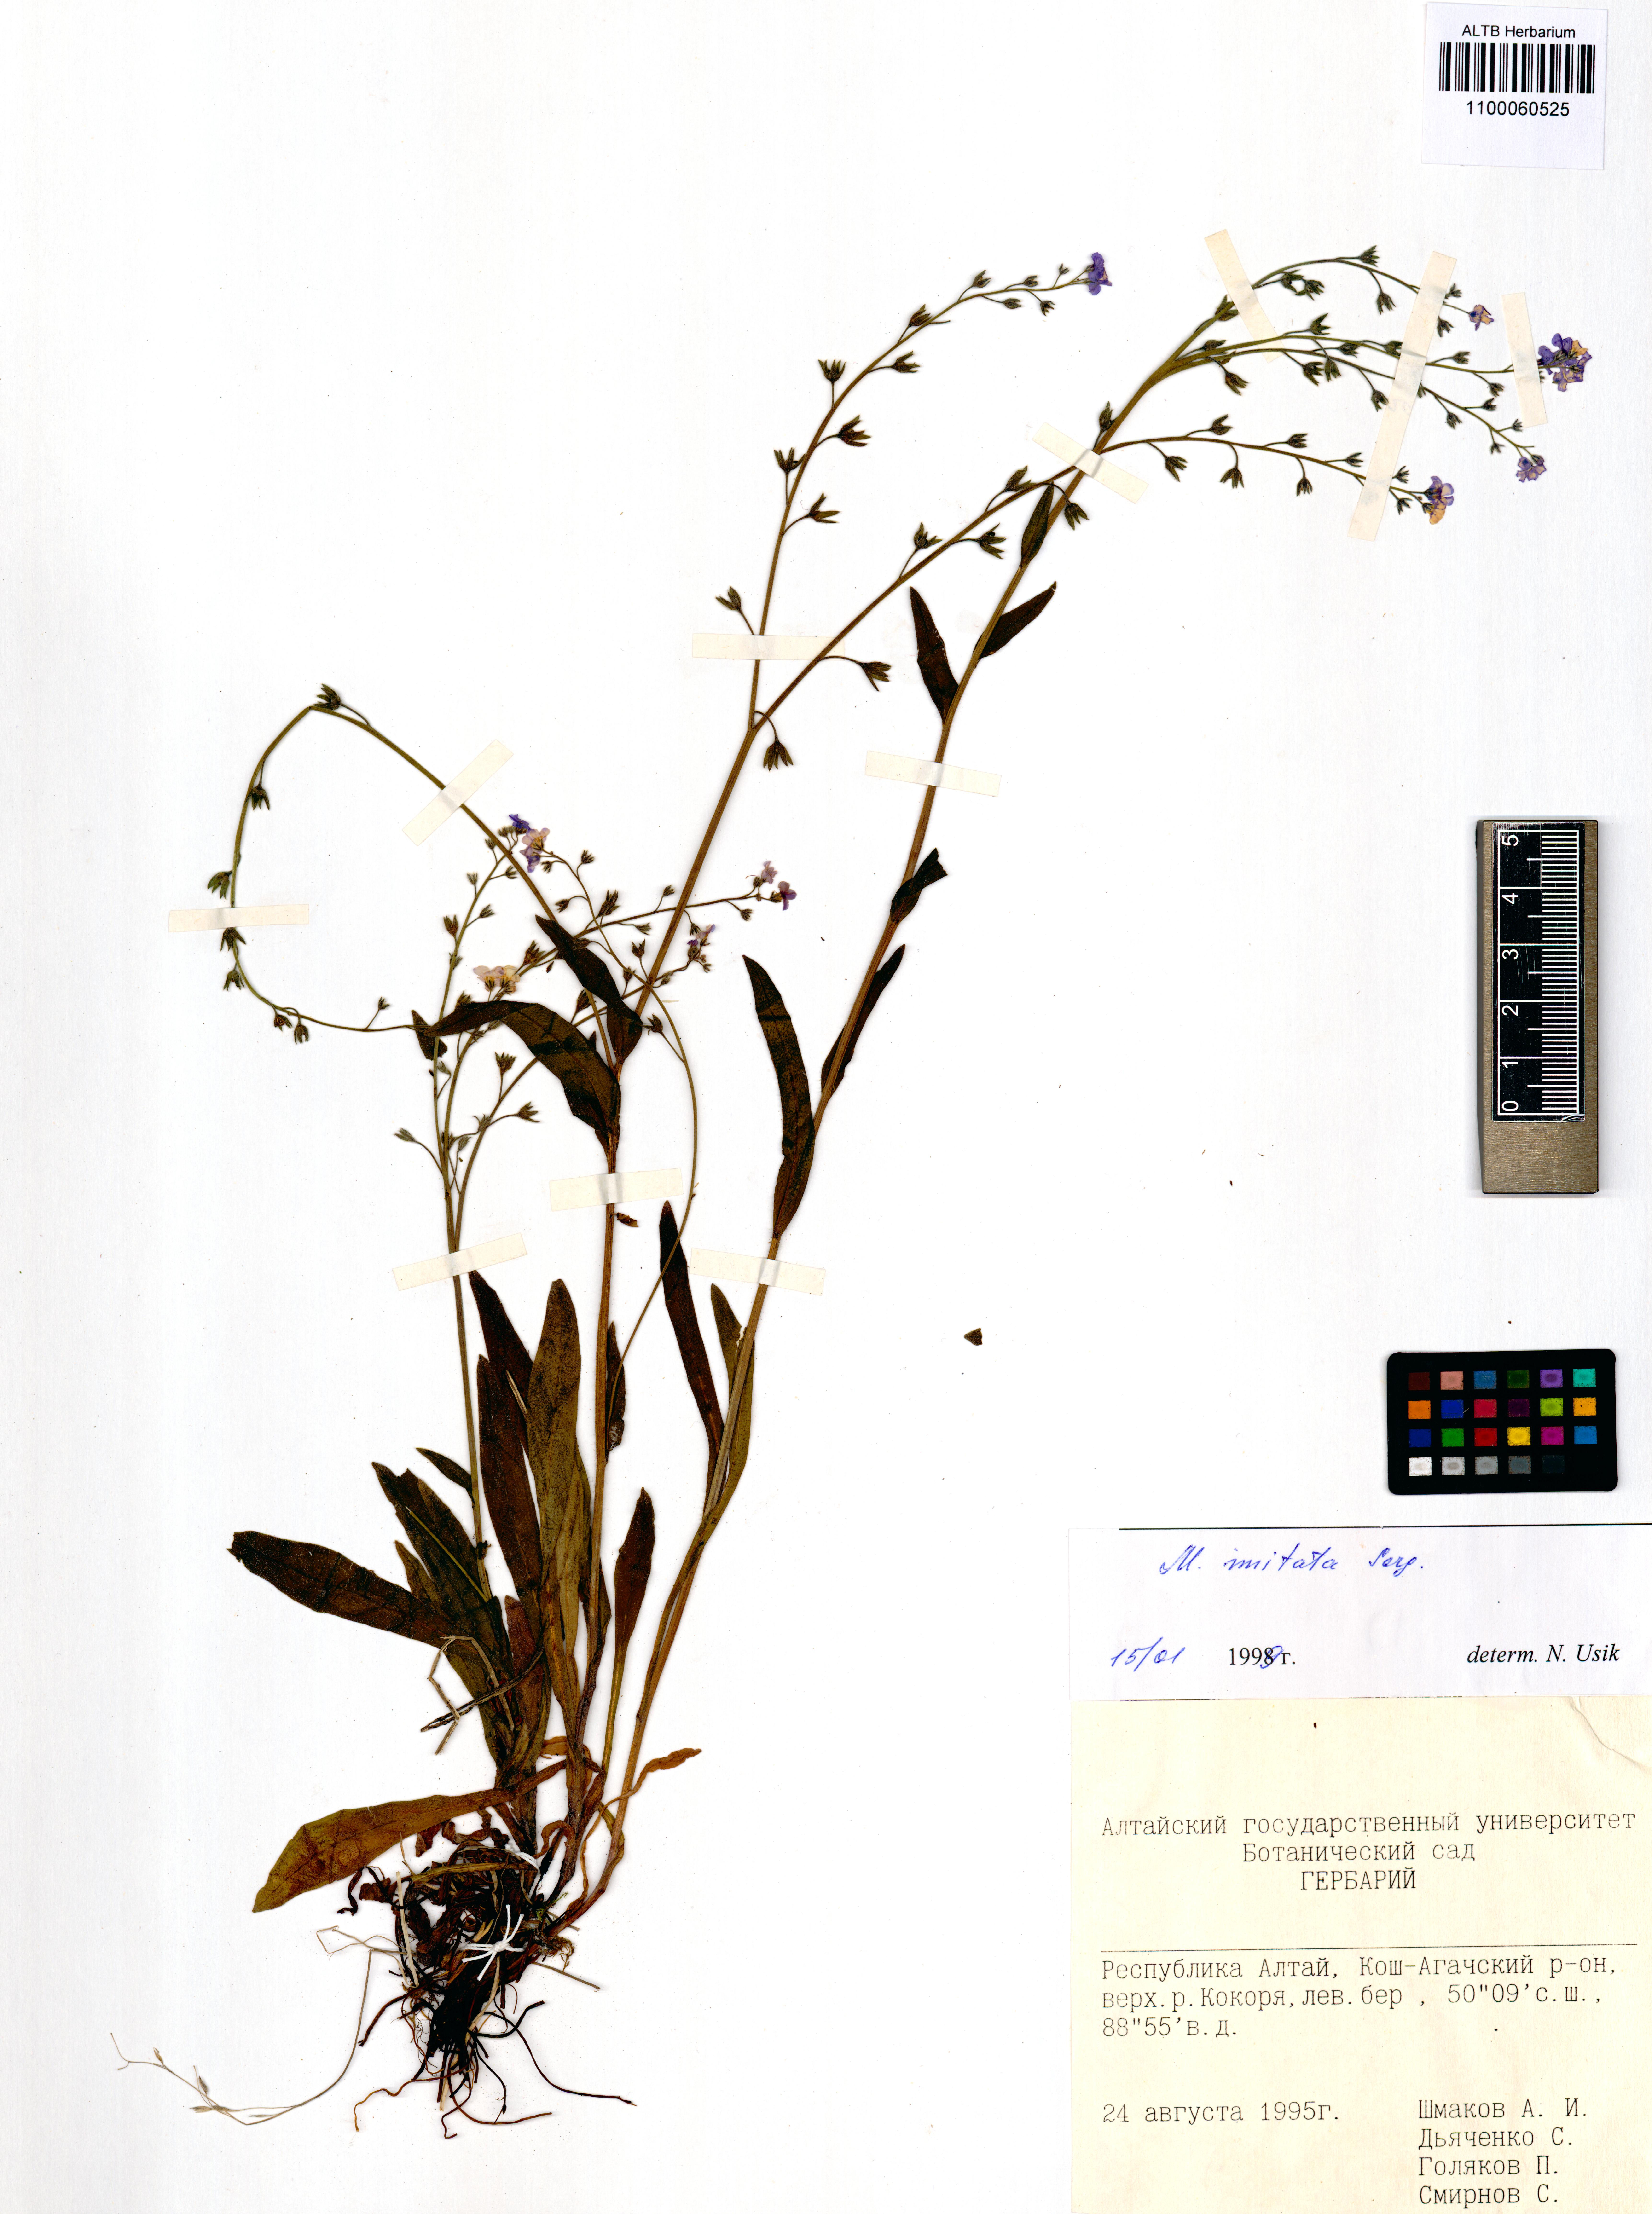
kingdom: Plantae
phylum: Tracheophyta
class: Magnoliopsida
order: Boraginales
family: Boraginaceae
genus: Myosotis
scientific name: Myosotis imitata
